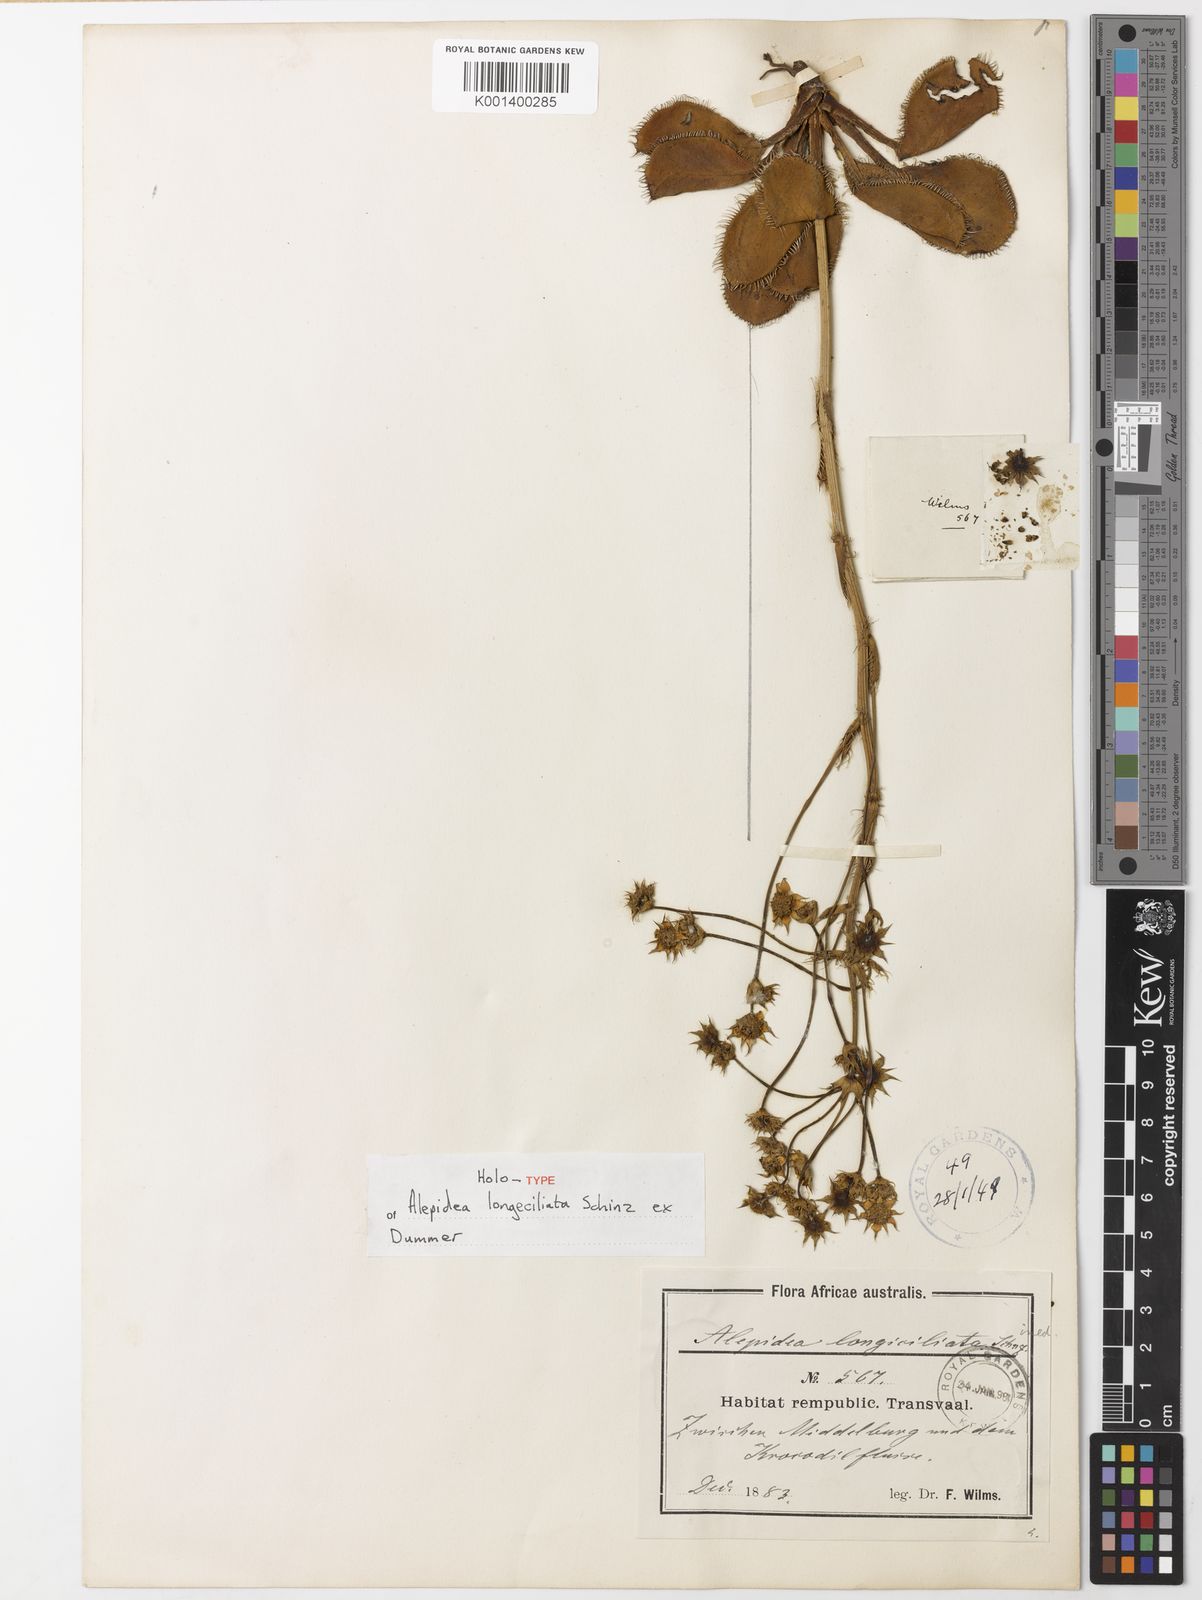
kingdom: Plantae
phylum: Tracheophyta
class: Magnoliopsida
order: Apiales
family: Apiaceae
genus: Alepidea
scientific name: Alepidea
